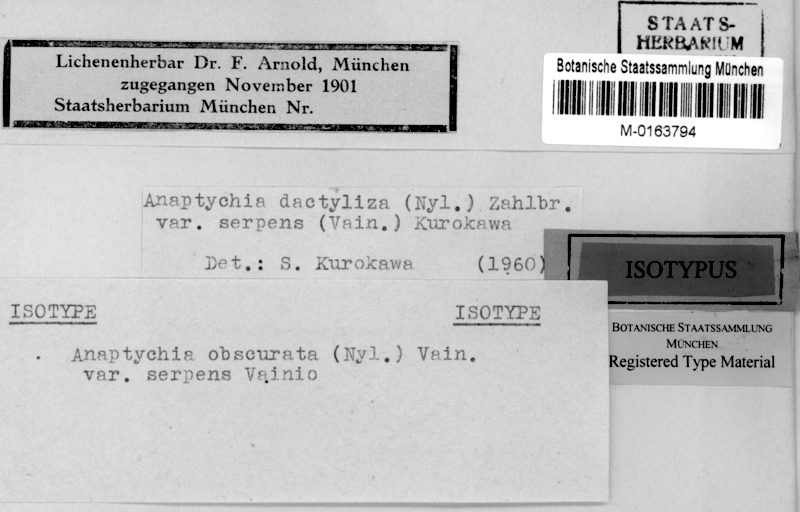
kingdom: Fungi
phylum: Ascomycota
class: Lecanoromycetes
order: Caliciales
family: Physciaceae
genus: Heterodermia
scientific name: Heterodermia dactyliza
